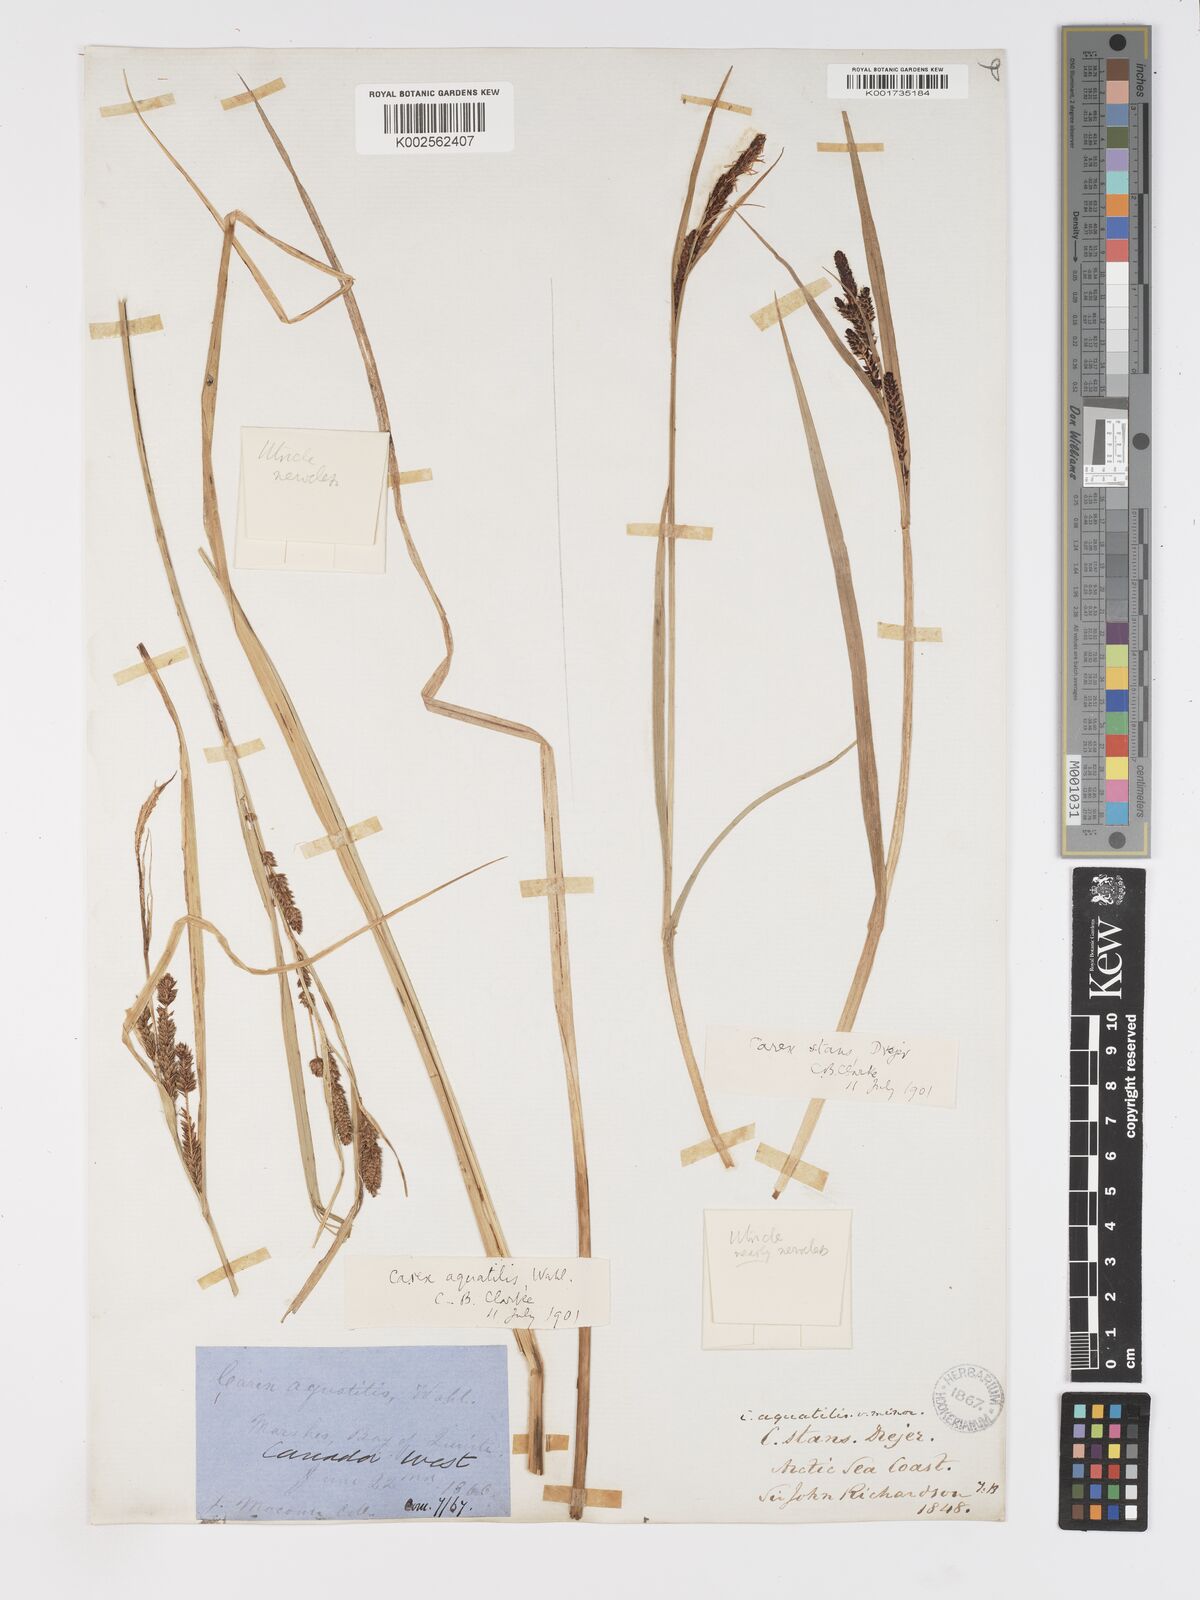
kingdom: Plantae
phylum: Tracheophyta
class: Liliopsida
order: Poales
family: Cyperaceae
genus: Carex
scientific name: Carex aquatilis
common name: Water sedge
